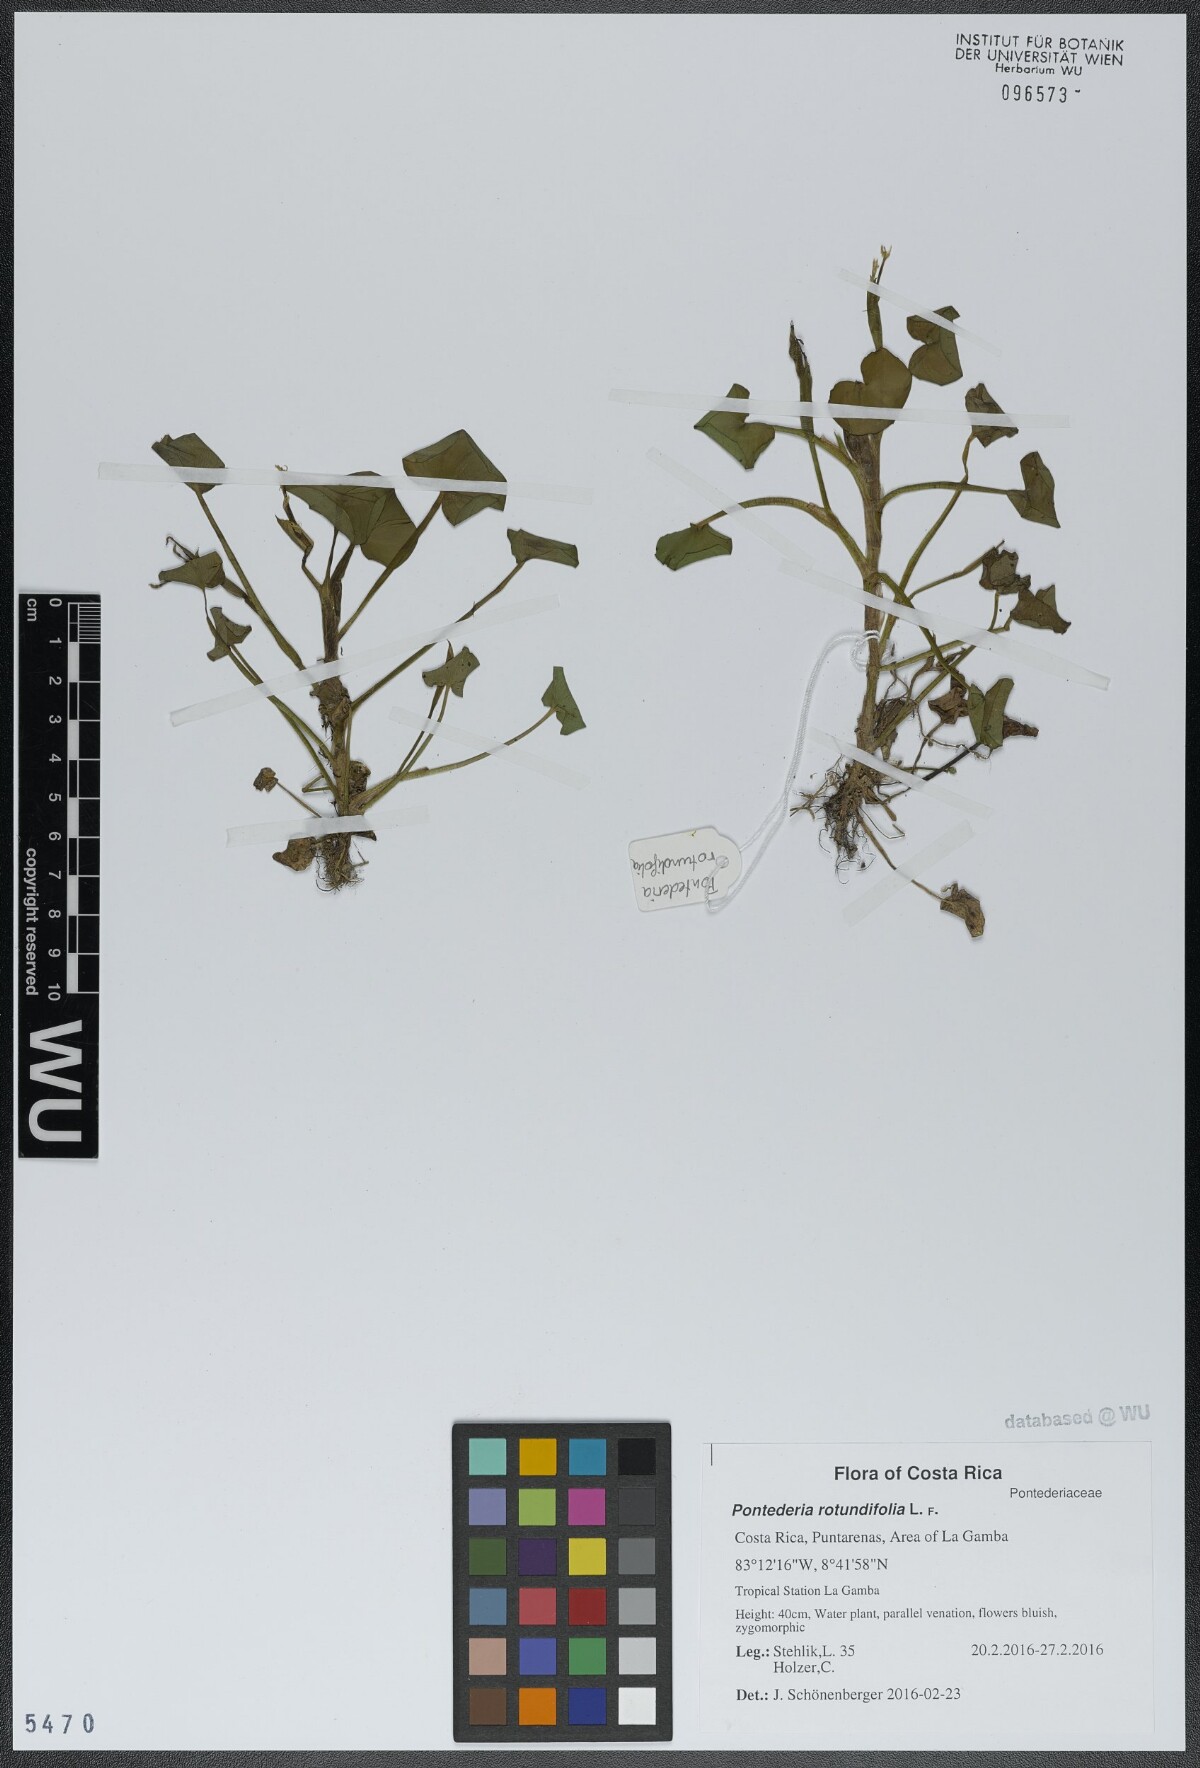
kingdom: Plantae
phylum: Tracheophyta
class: Liliopsida
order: Commelinales
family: Pontederiaceae
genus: Pontederia
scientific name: Pontederia rotundifolia
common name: Tropical pickerel-weed
